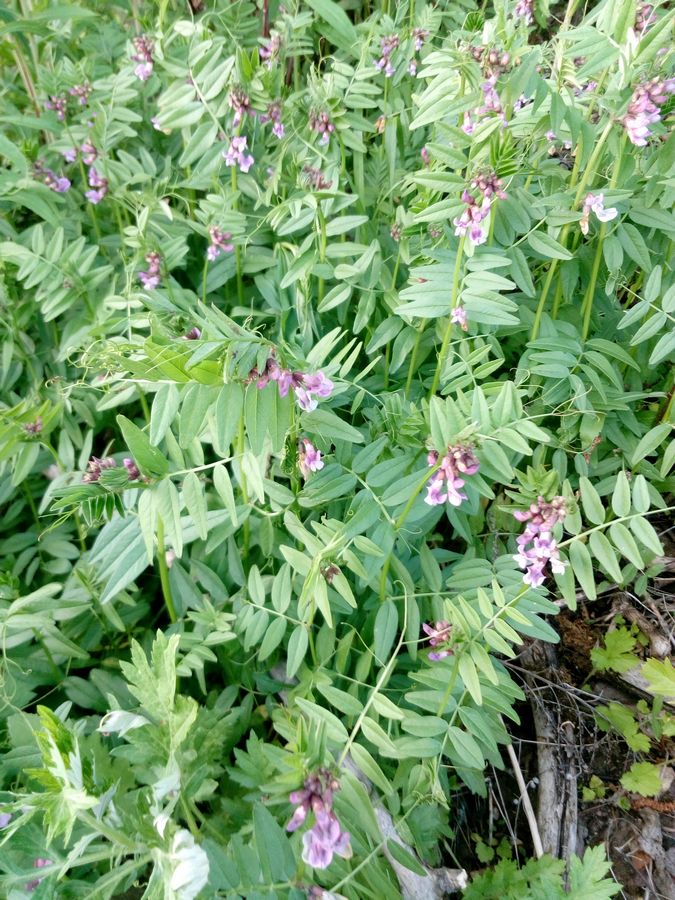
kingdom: Plantae
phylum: Tracheophyta
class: Magnoliopsida
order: Fabales
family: Fabaceae
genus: Vicia
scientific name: Vicia cracca
